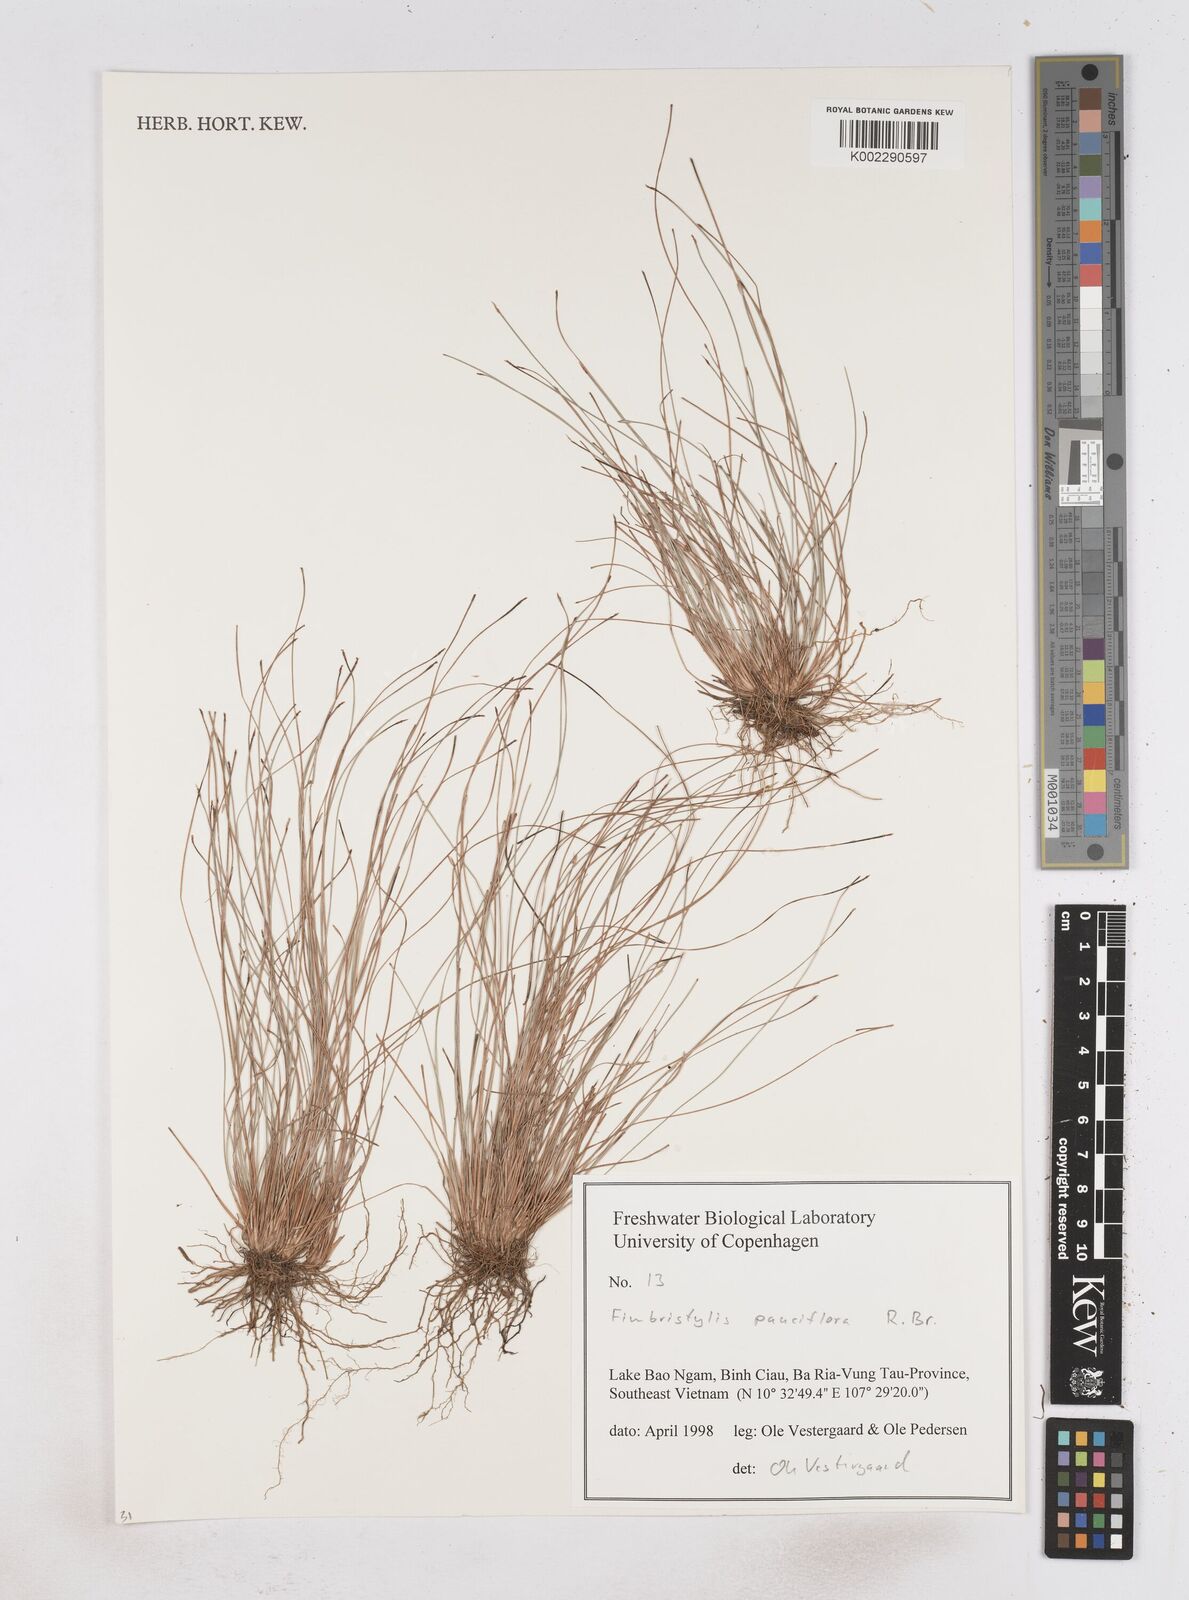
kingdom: Plantae
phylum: Tracheophyta
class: Liliopsida
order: Poales
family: Cyperaceae
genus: Fimbristylis
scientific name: Fimbristylis pauciflora
